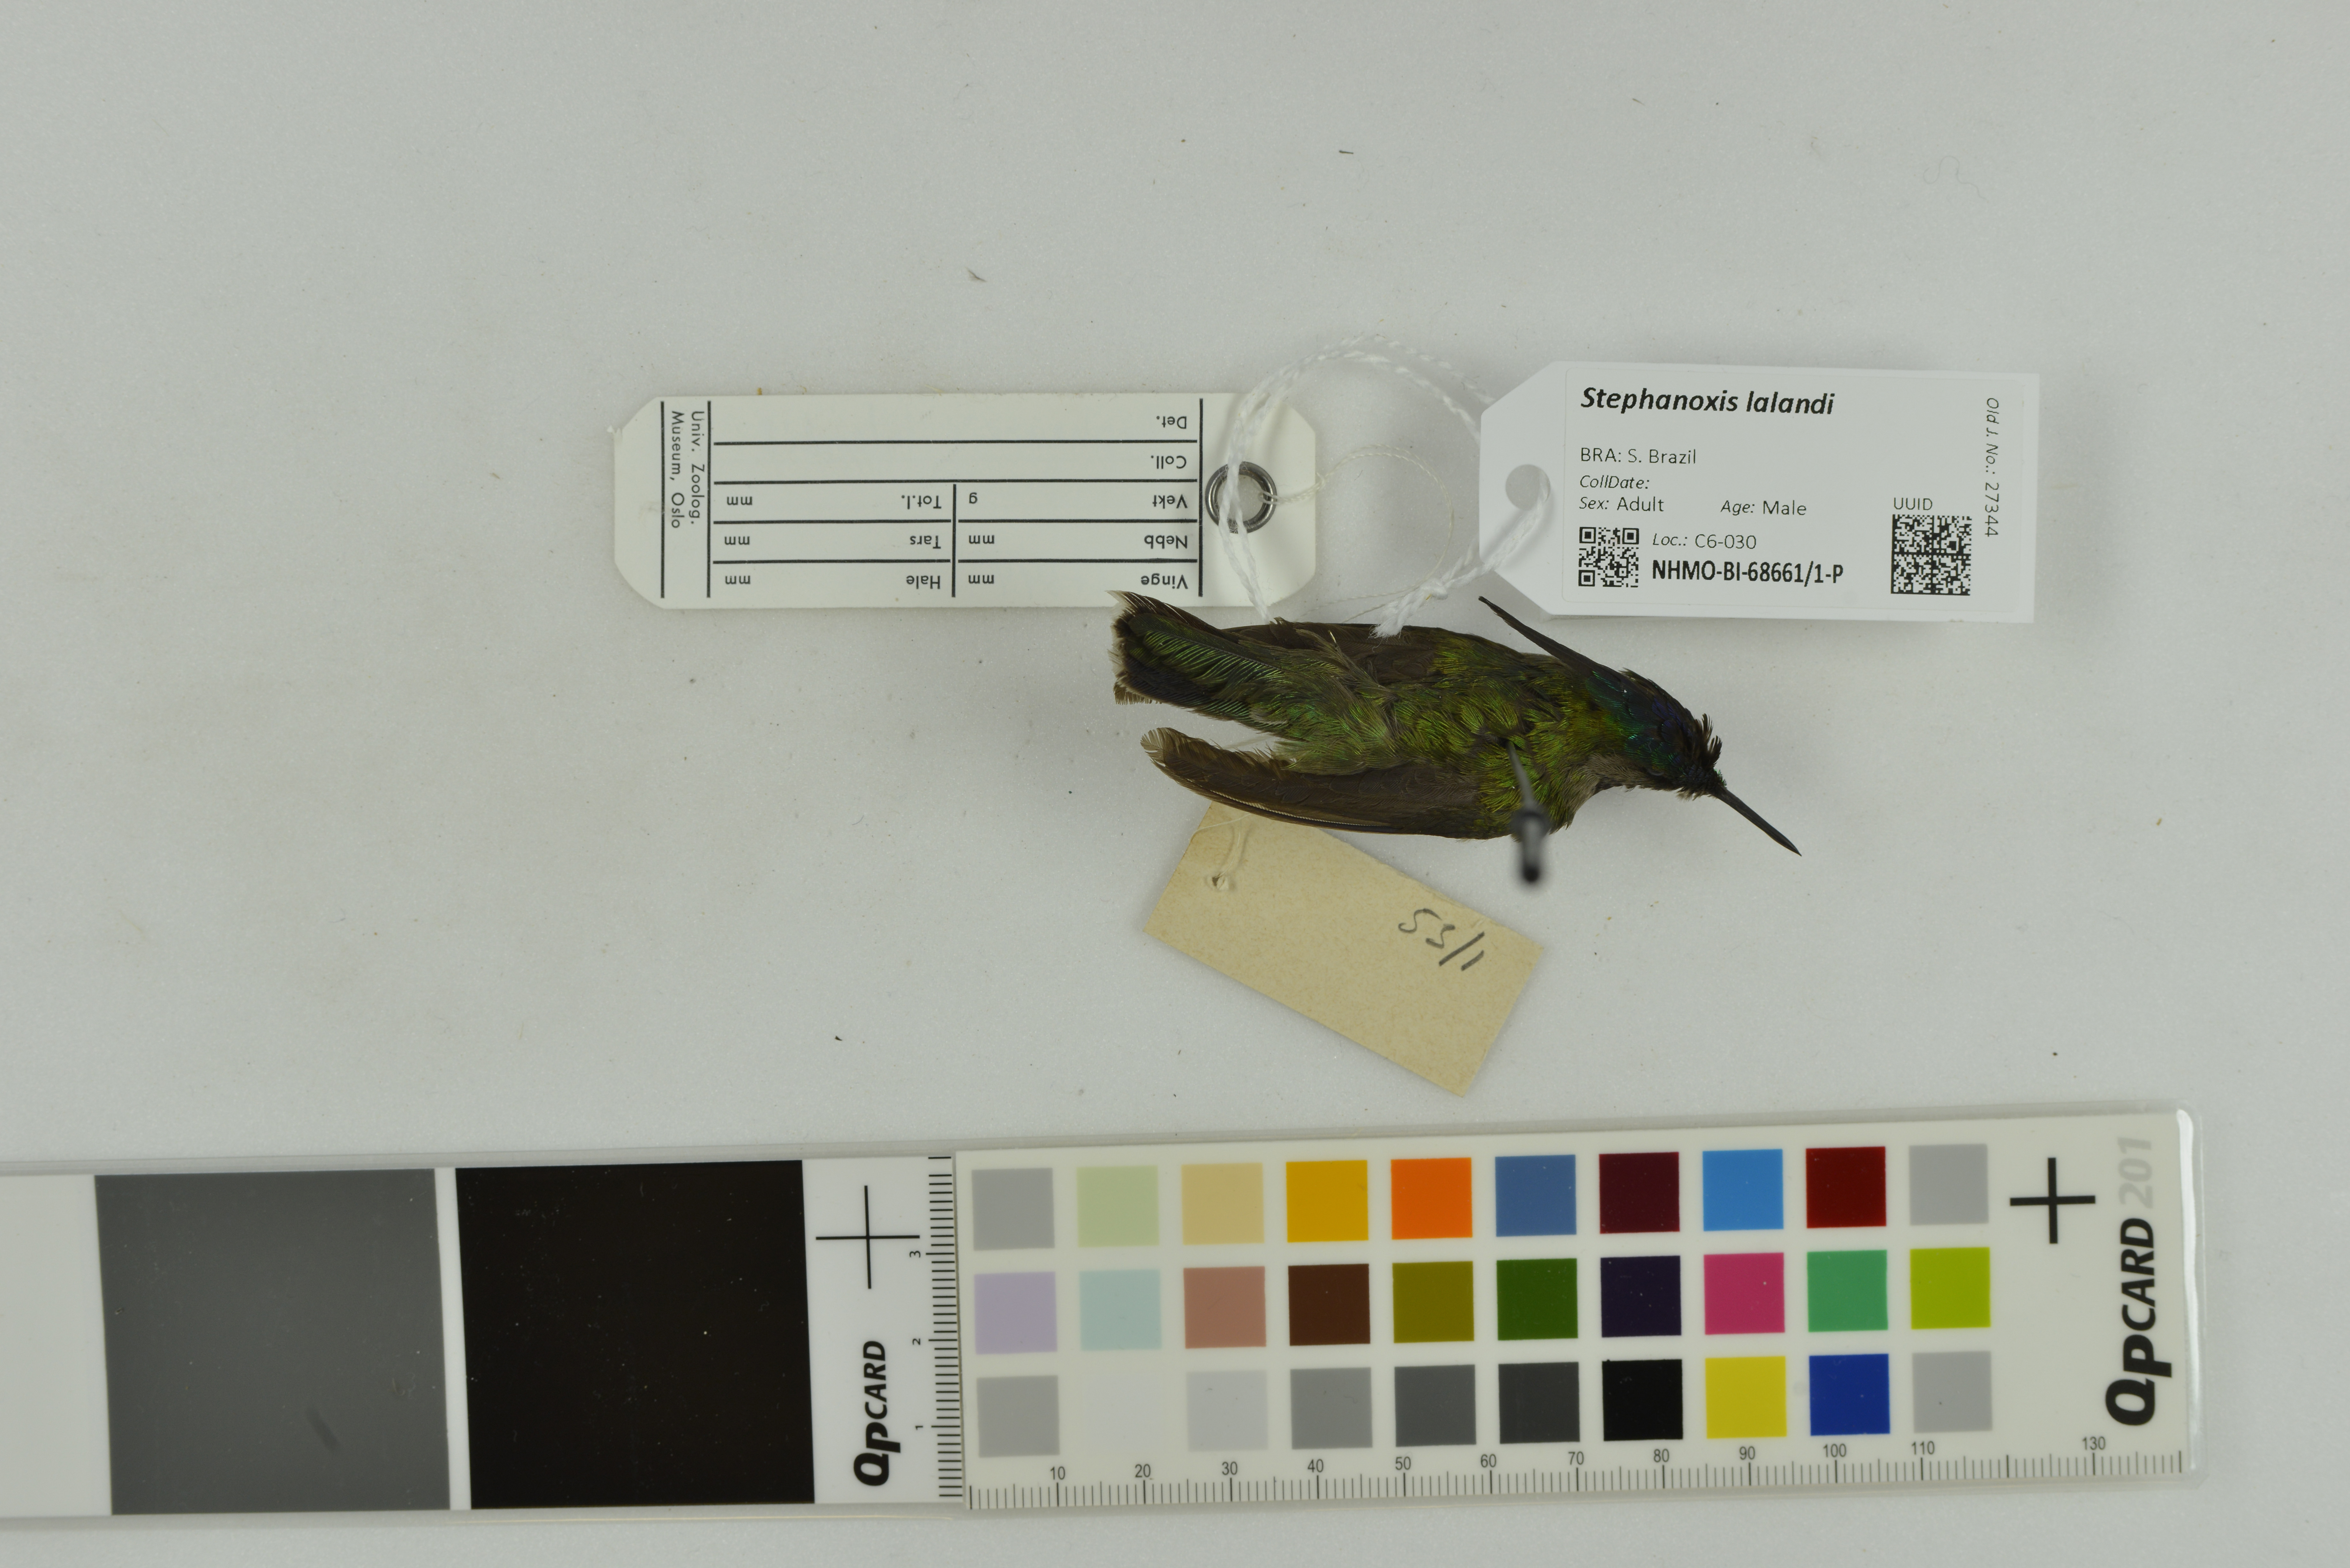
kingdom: Animalia
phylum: Chordata
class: Aves
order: Apodiformes
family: Trochilidae
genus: Stephanoxis
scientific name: Stephanoxis lalandi
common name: Green-crowned plovercrest
